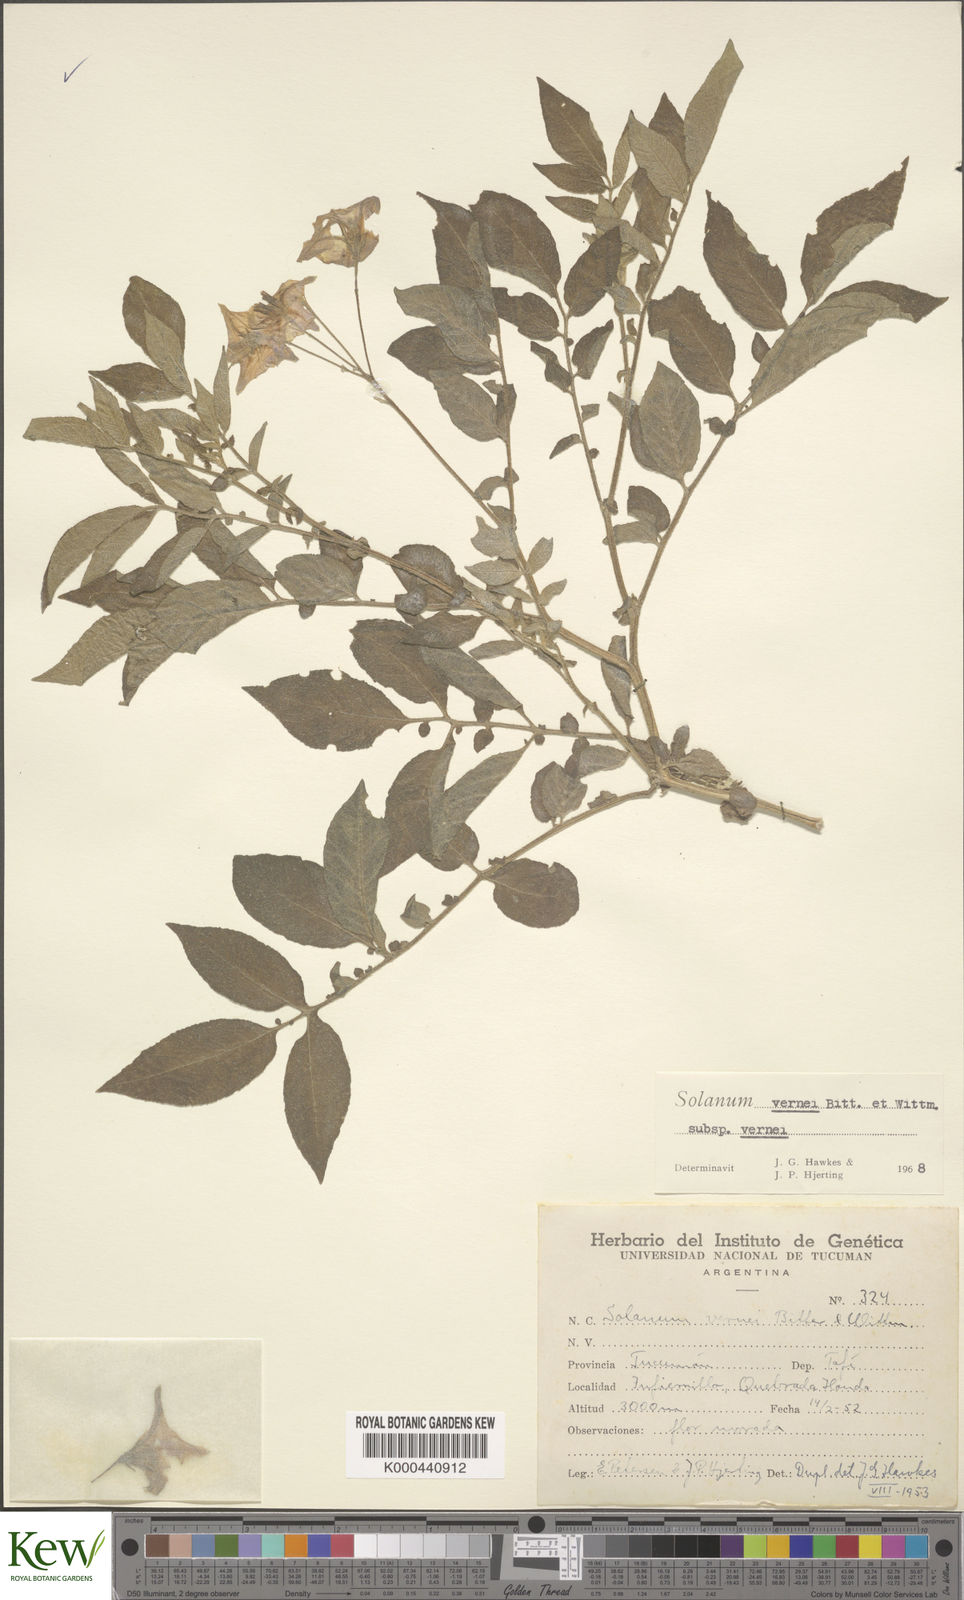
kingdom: Plantae
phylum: Tracheophyta
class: Magnoliopsida
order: Solanales
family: Solanaceae
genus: Solanum
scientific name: Solanum vernei
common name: Purple potato
